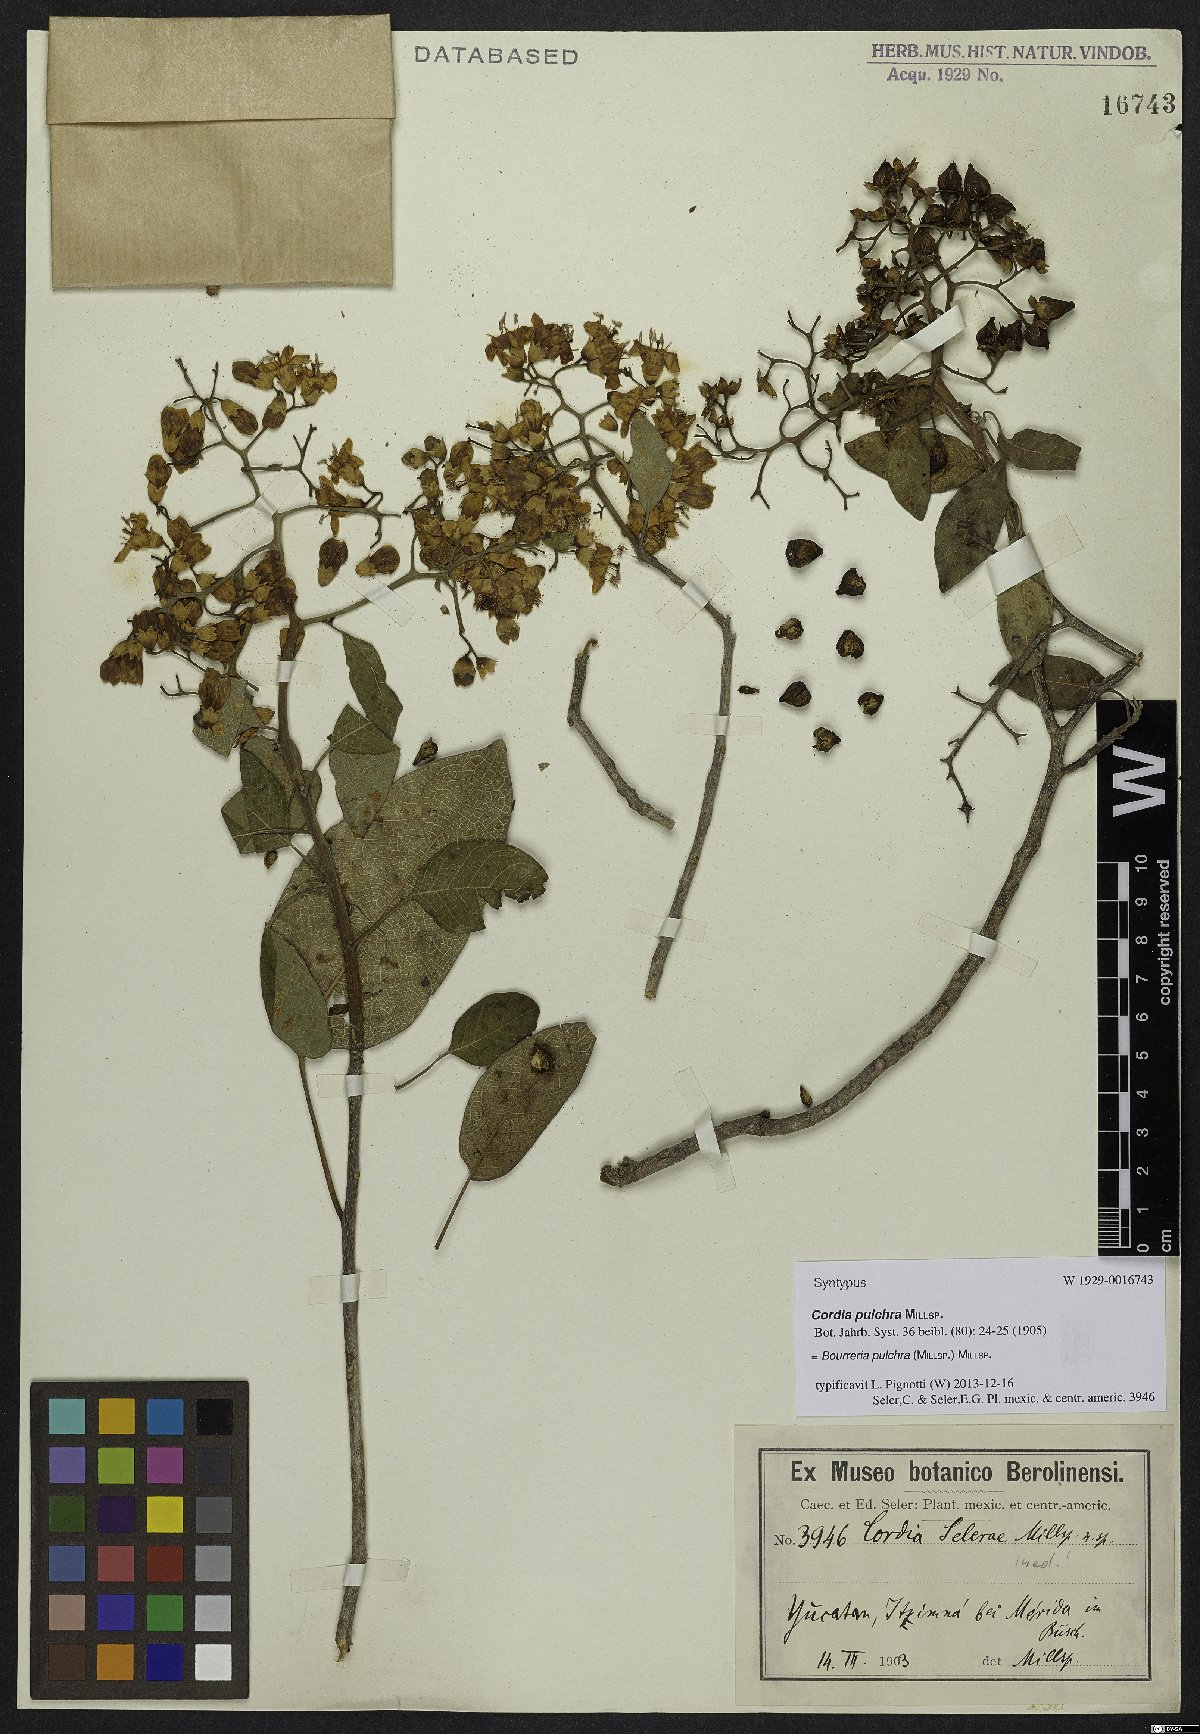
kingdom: Plantae
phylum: Tracheophyta
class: Magnoliopsida
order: Boraginales
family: Ehretiaceae
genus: Bourreria
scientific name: Bourreria pulchra
